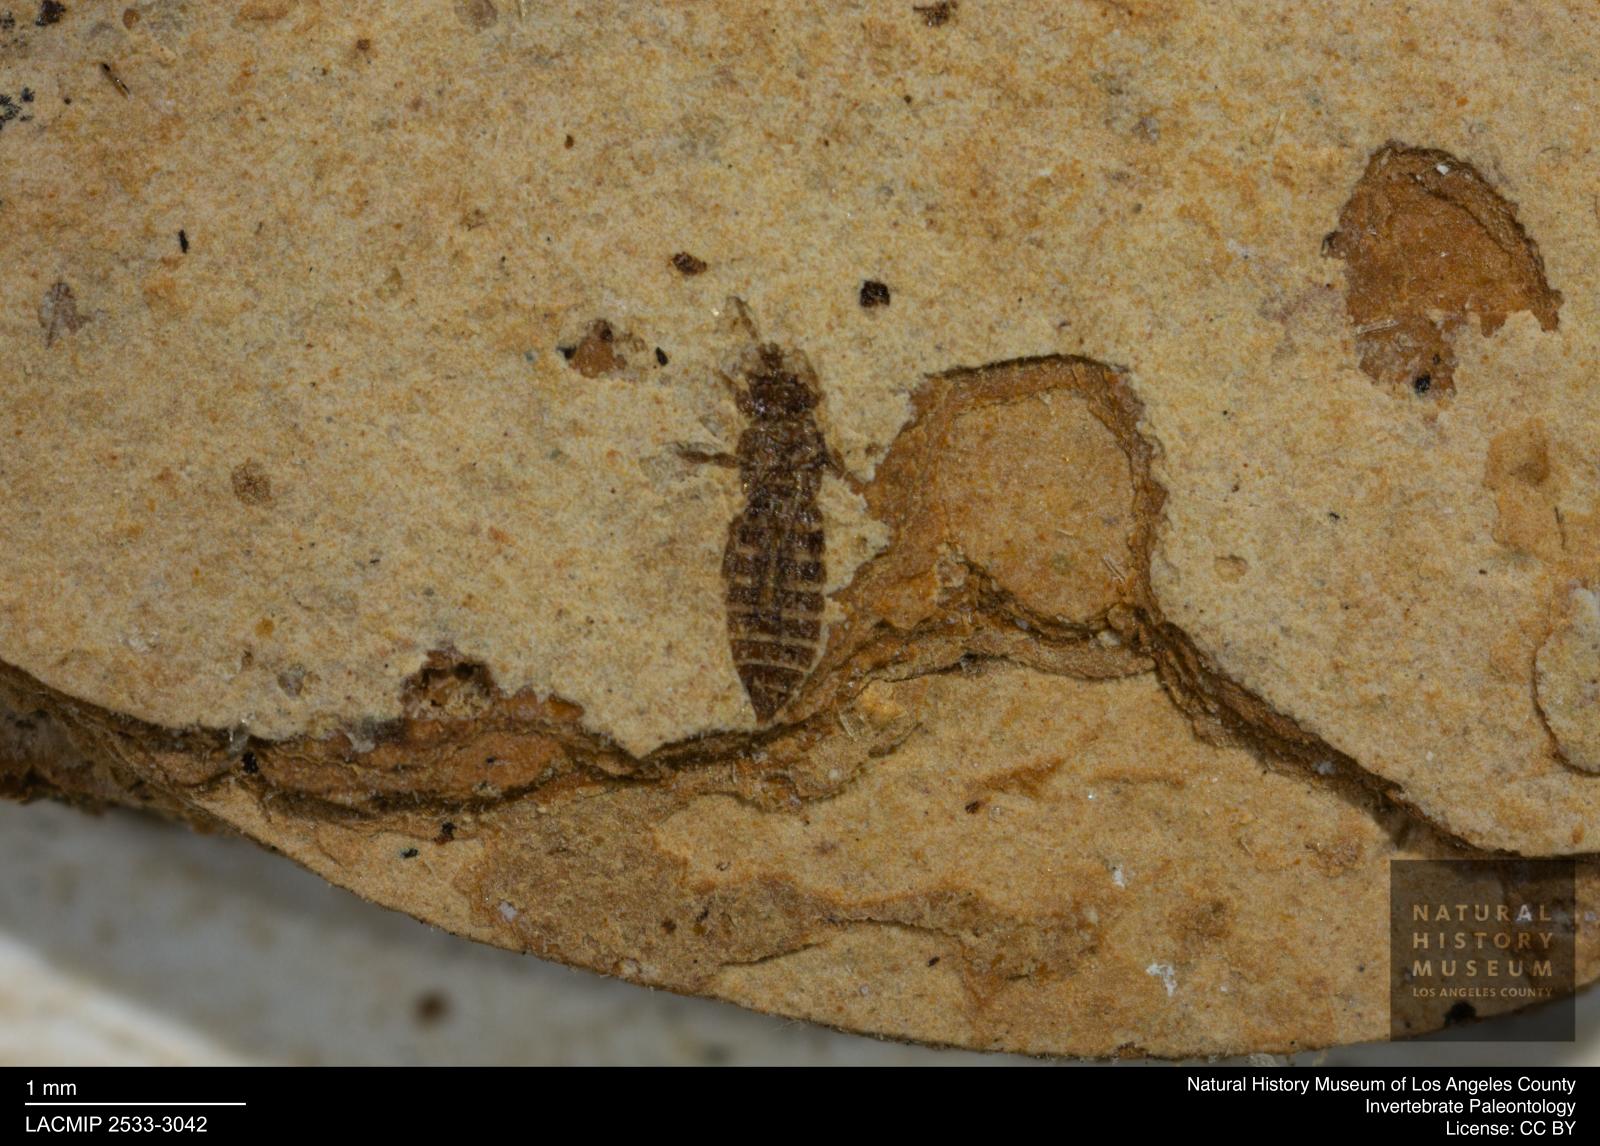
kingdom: Animalia
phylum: Arthropoda
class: Insecta
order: Thysanoptera
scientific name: Thysanoptera
